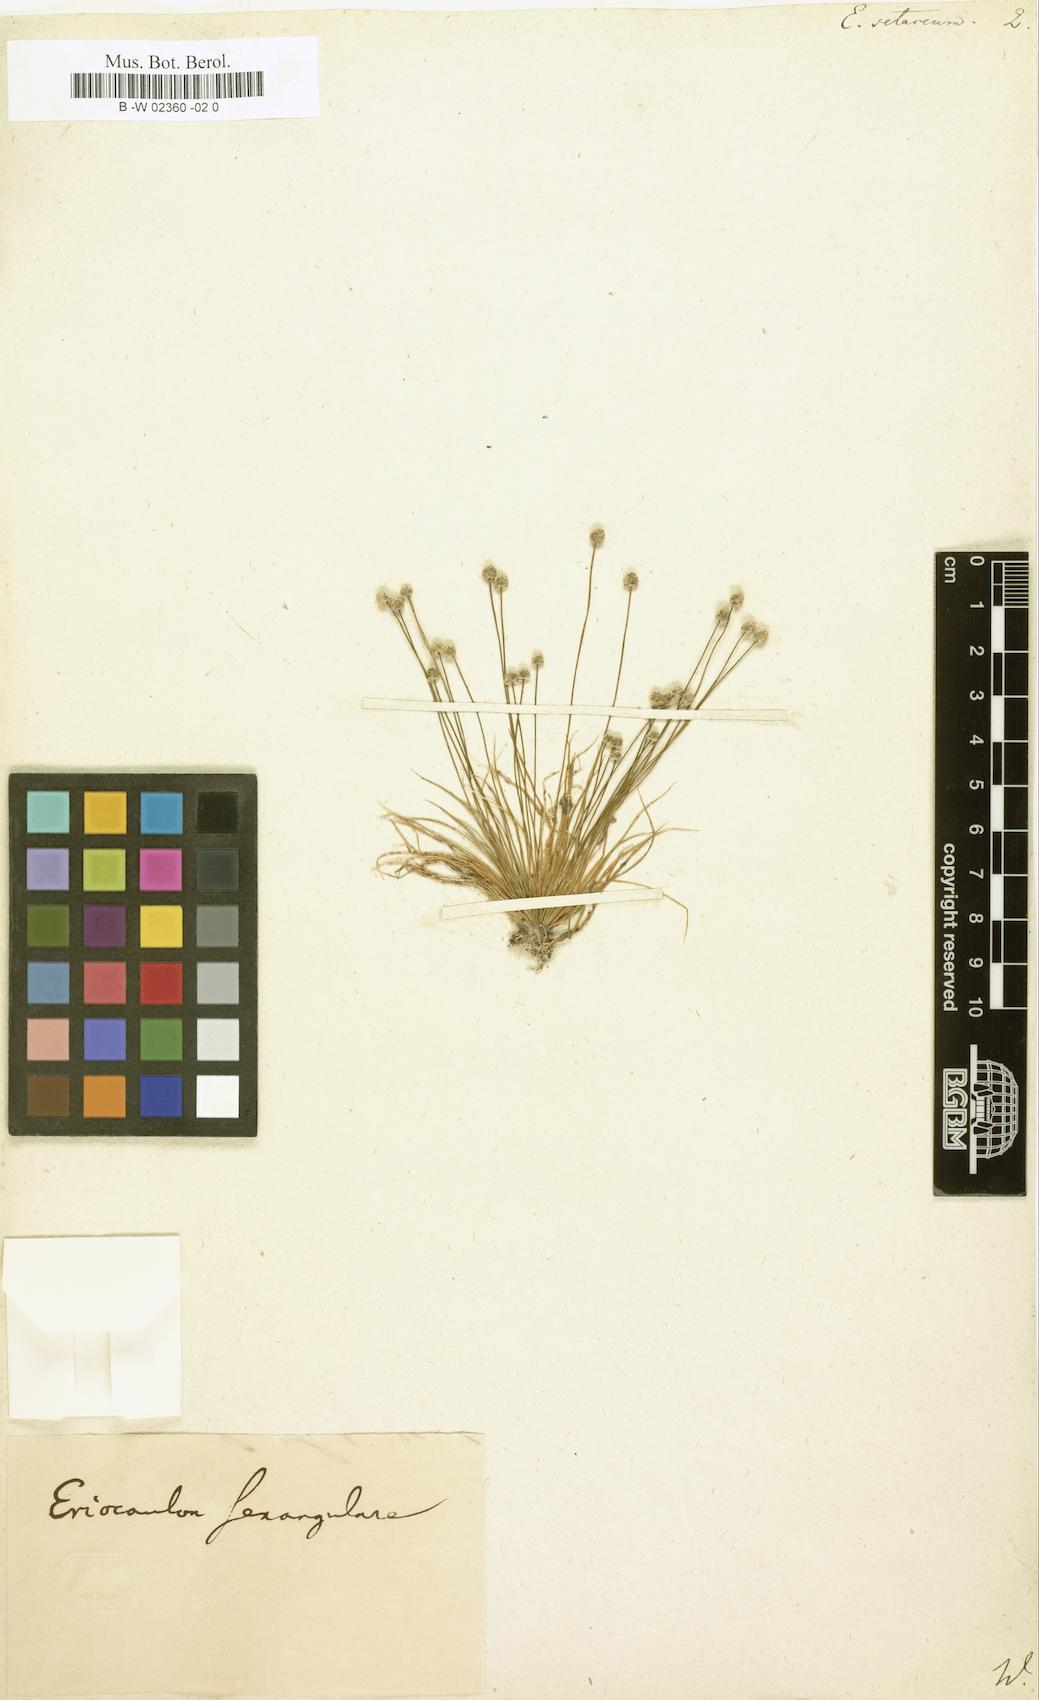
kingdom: Plantae
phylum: Tracheophyta
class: Liliopsida
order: Poales
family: Eriocaulaceae
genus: Eriocaulon
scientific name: Eriocaulon setaceum
